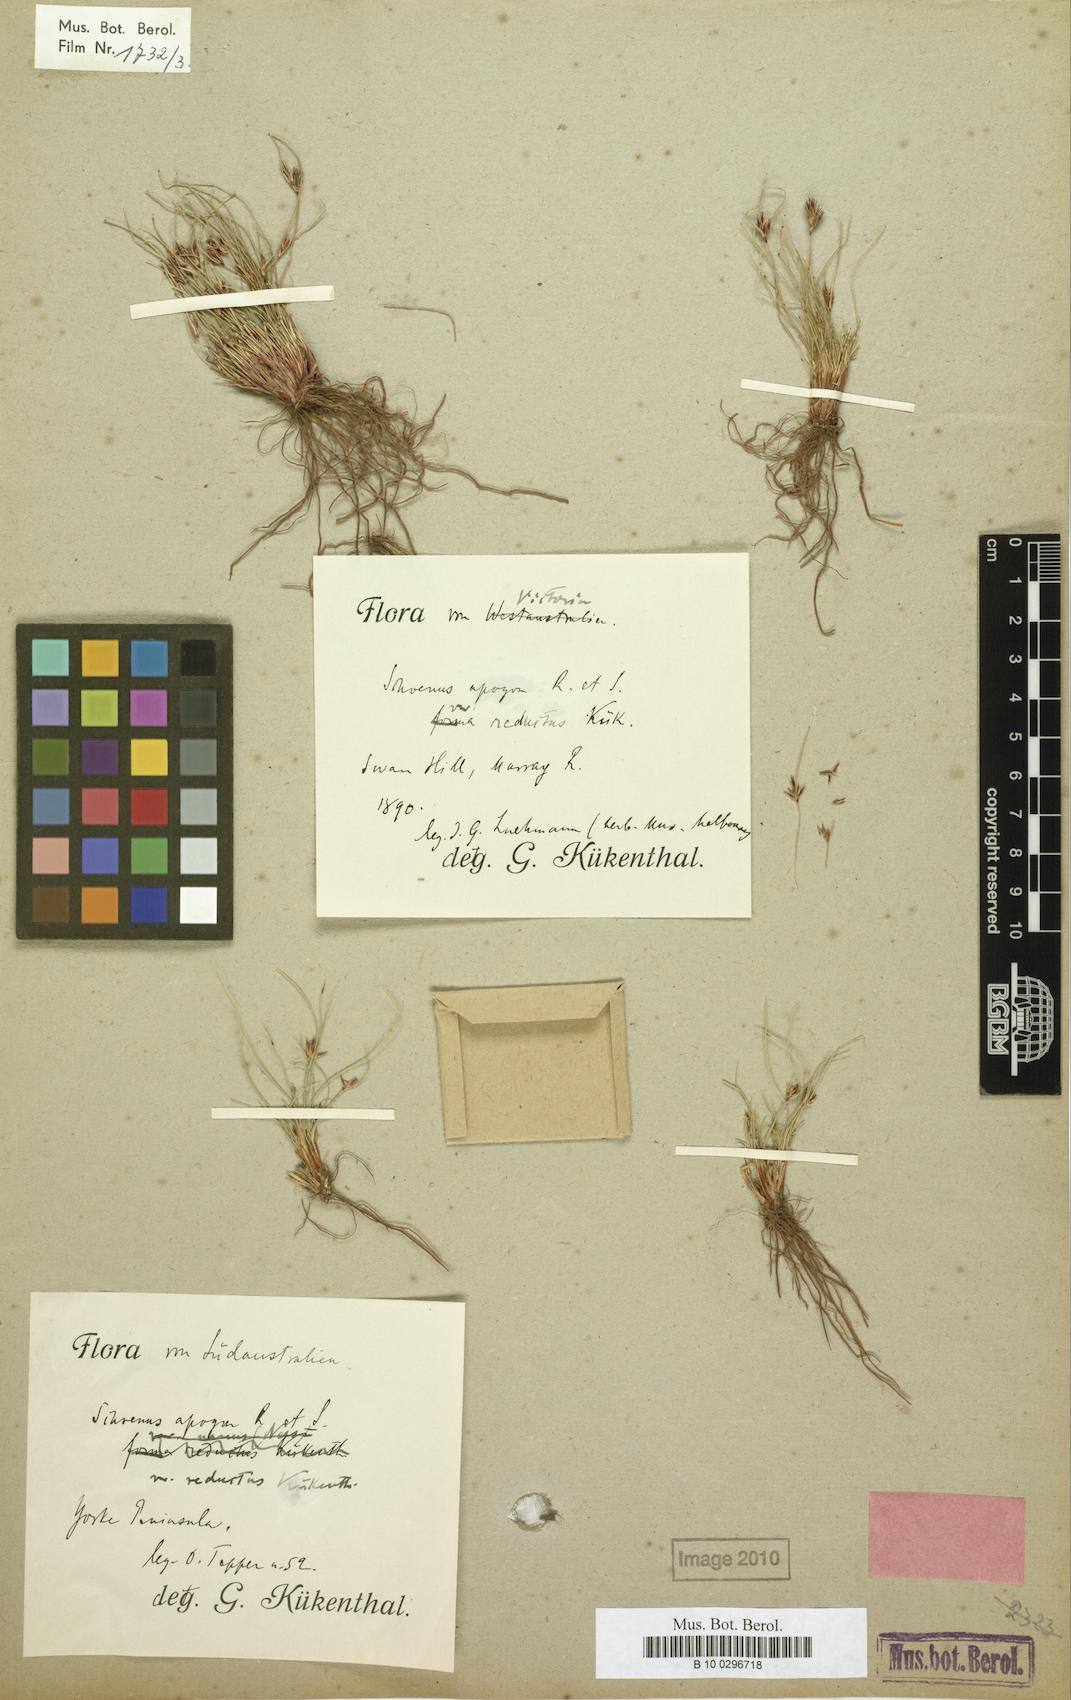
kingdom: Plantae
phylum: Tracheophyta
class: Liliopsida
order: Poales
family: Cyperaceae
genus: Schoenus
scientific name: Schoenus apogon
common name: Smooth bogrush
